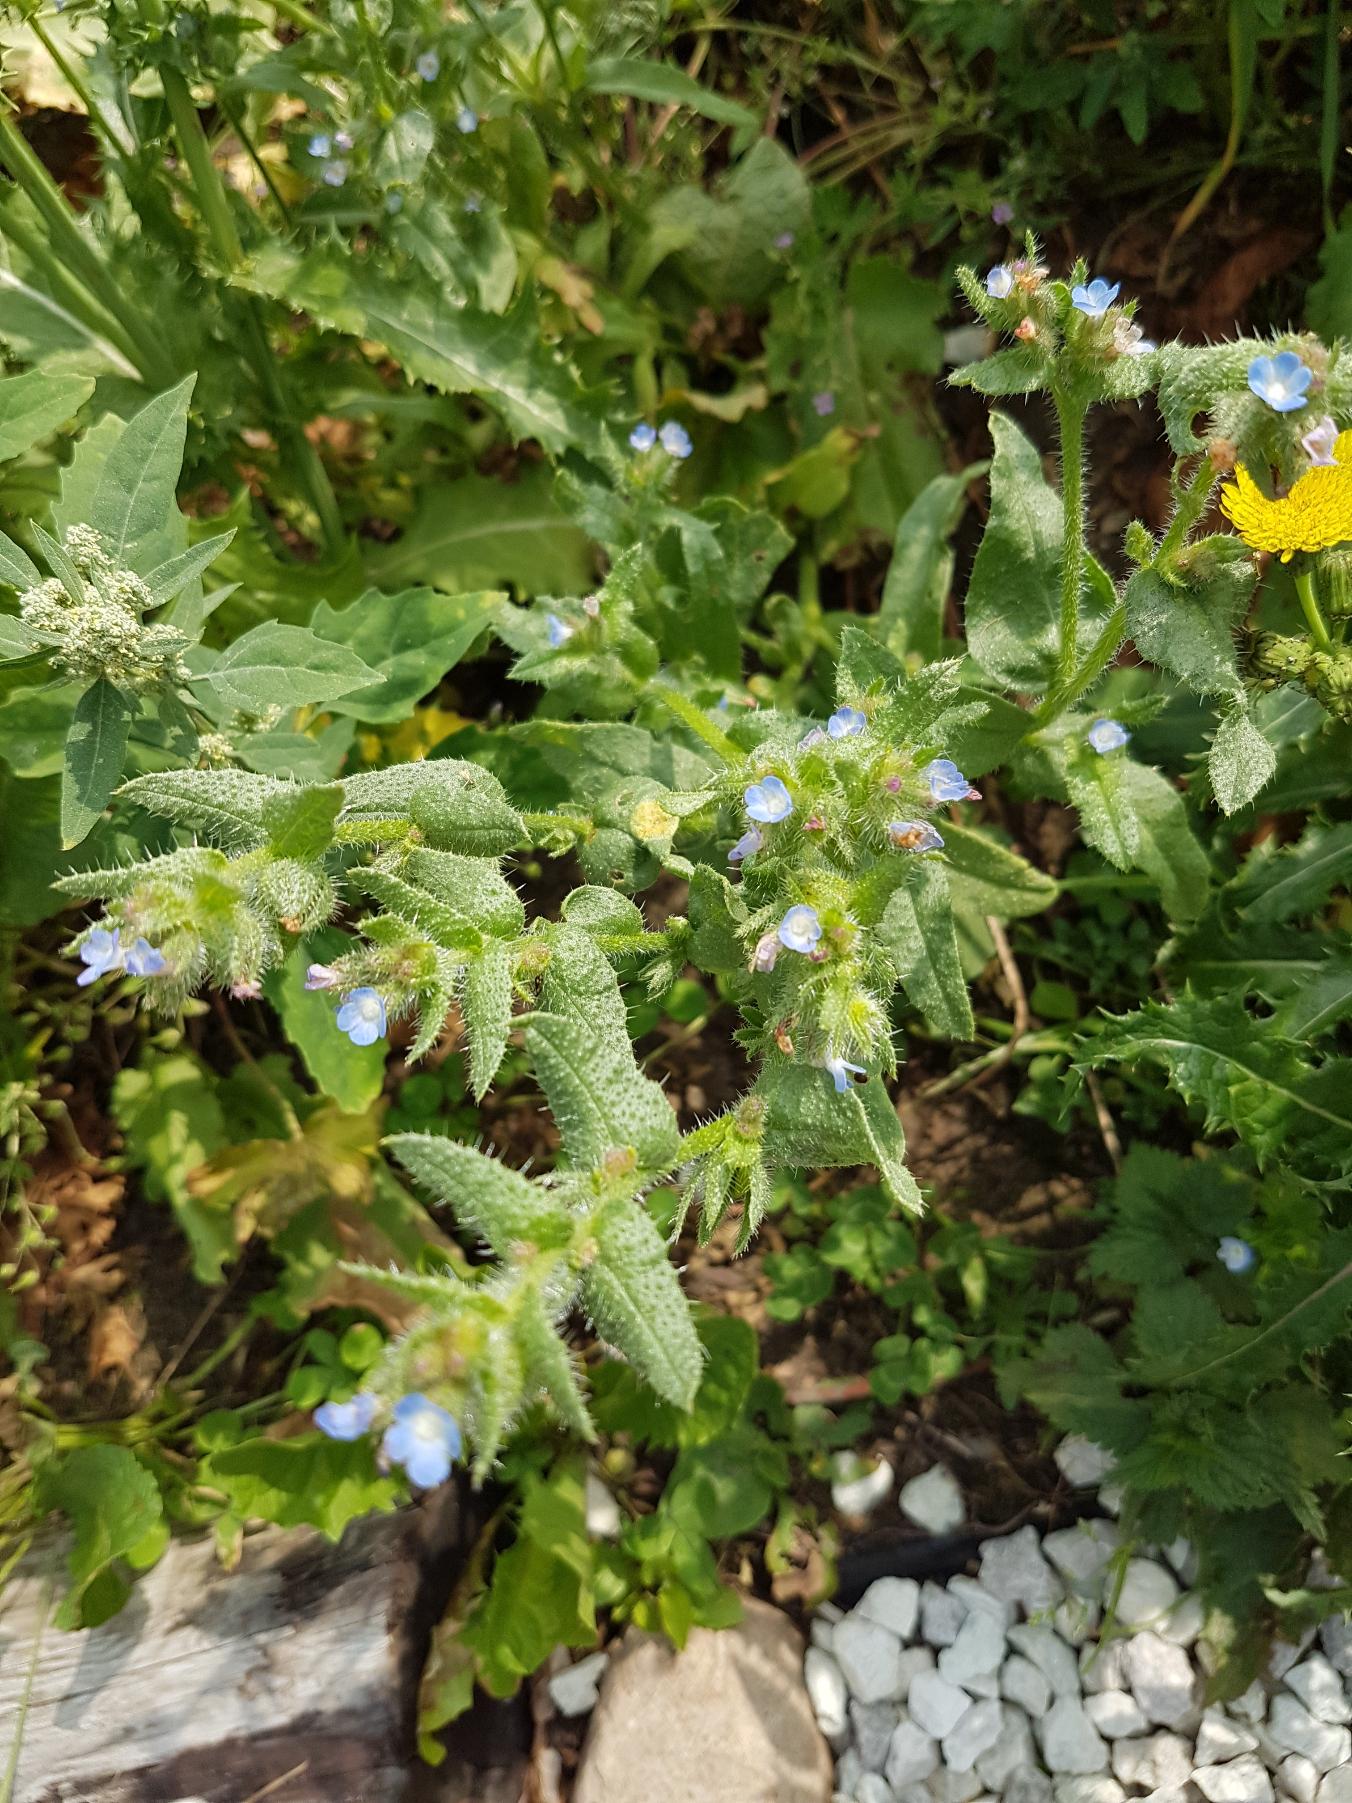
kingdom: Plantae
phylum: Tracheophyta
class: Magnoliopsida
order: Boraginales
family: Boraginaceae
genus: Lycopsis
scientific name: Lycopsis arvensis
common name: Krumhals
